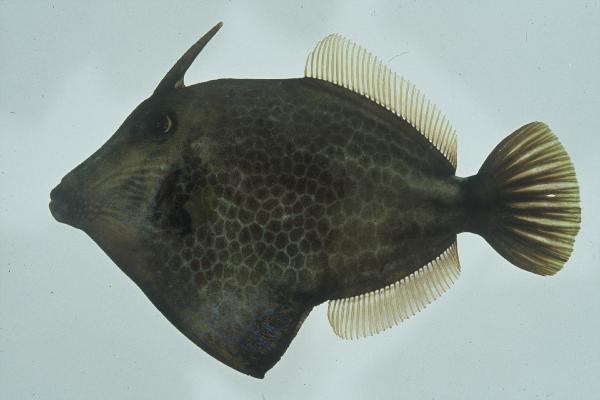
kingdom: Animalia
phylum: Chordata
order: Tetraodontiformes
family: Monacanthidae
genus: Cantherhines
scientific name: Cantherhines pardalis
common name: Honeycomb filefish
